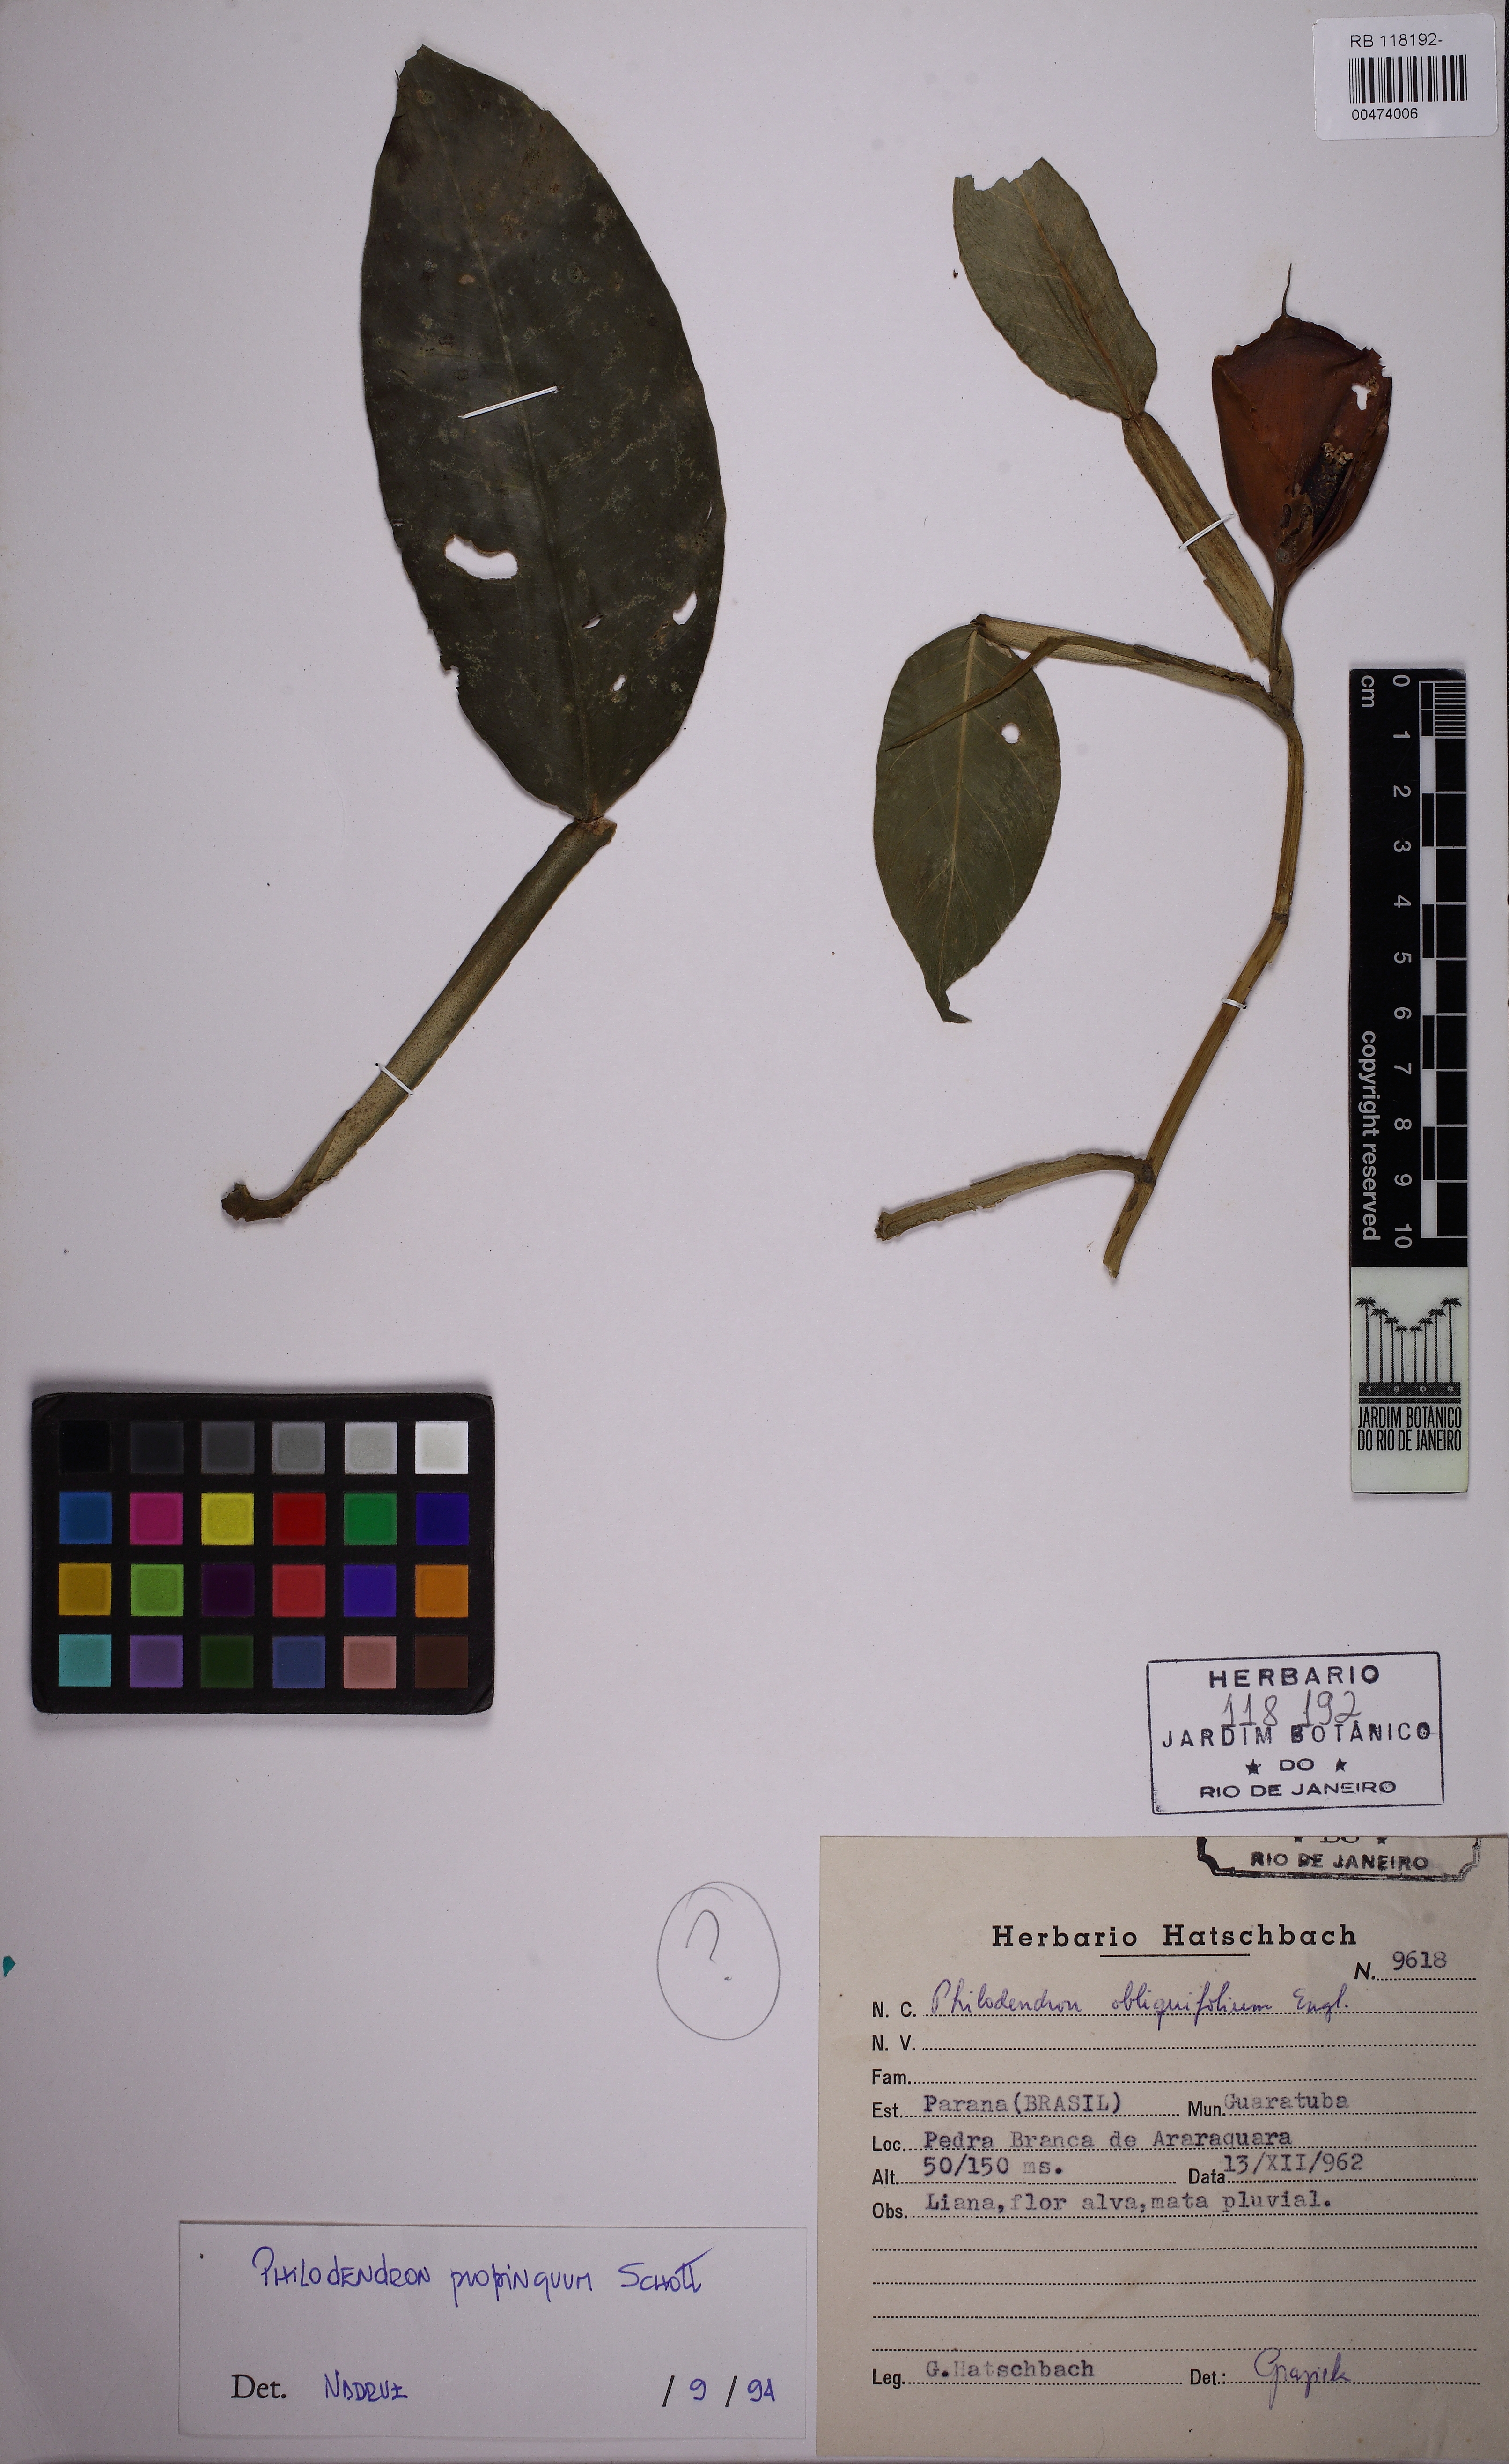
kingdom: Plantae
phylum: Tracheophyta
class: Liliopsida
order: Alismatales
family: Araceae
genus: Philodendron
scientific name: Philodendron propinquum
